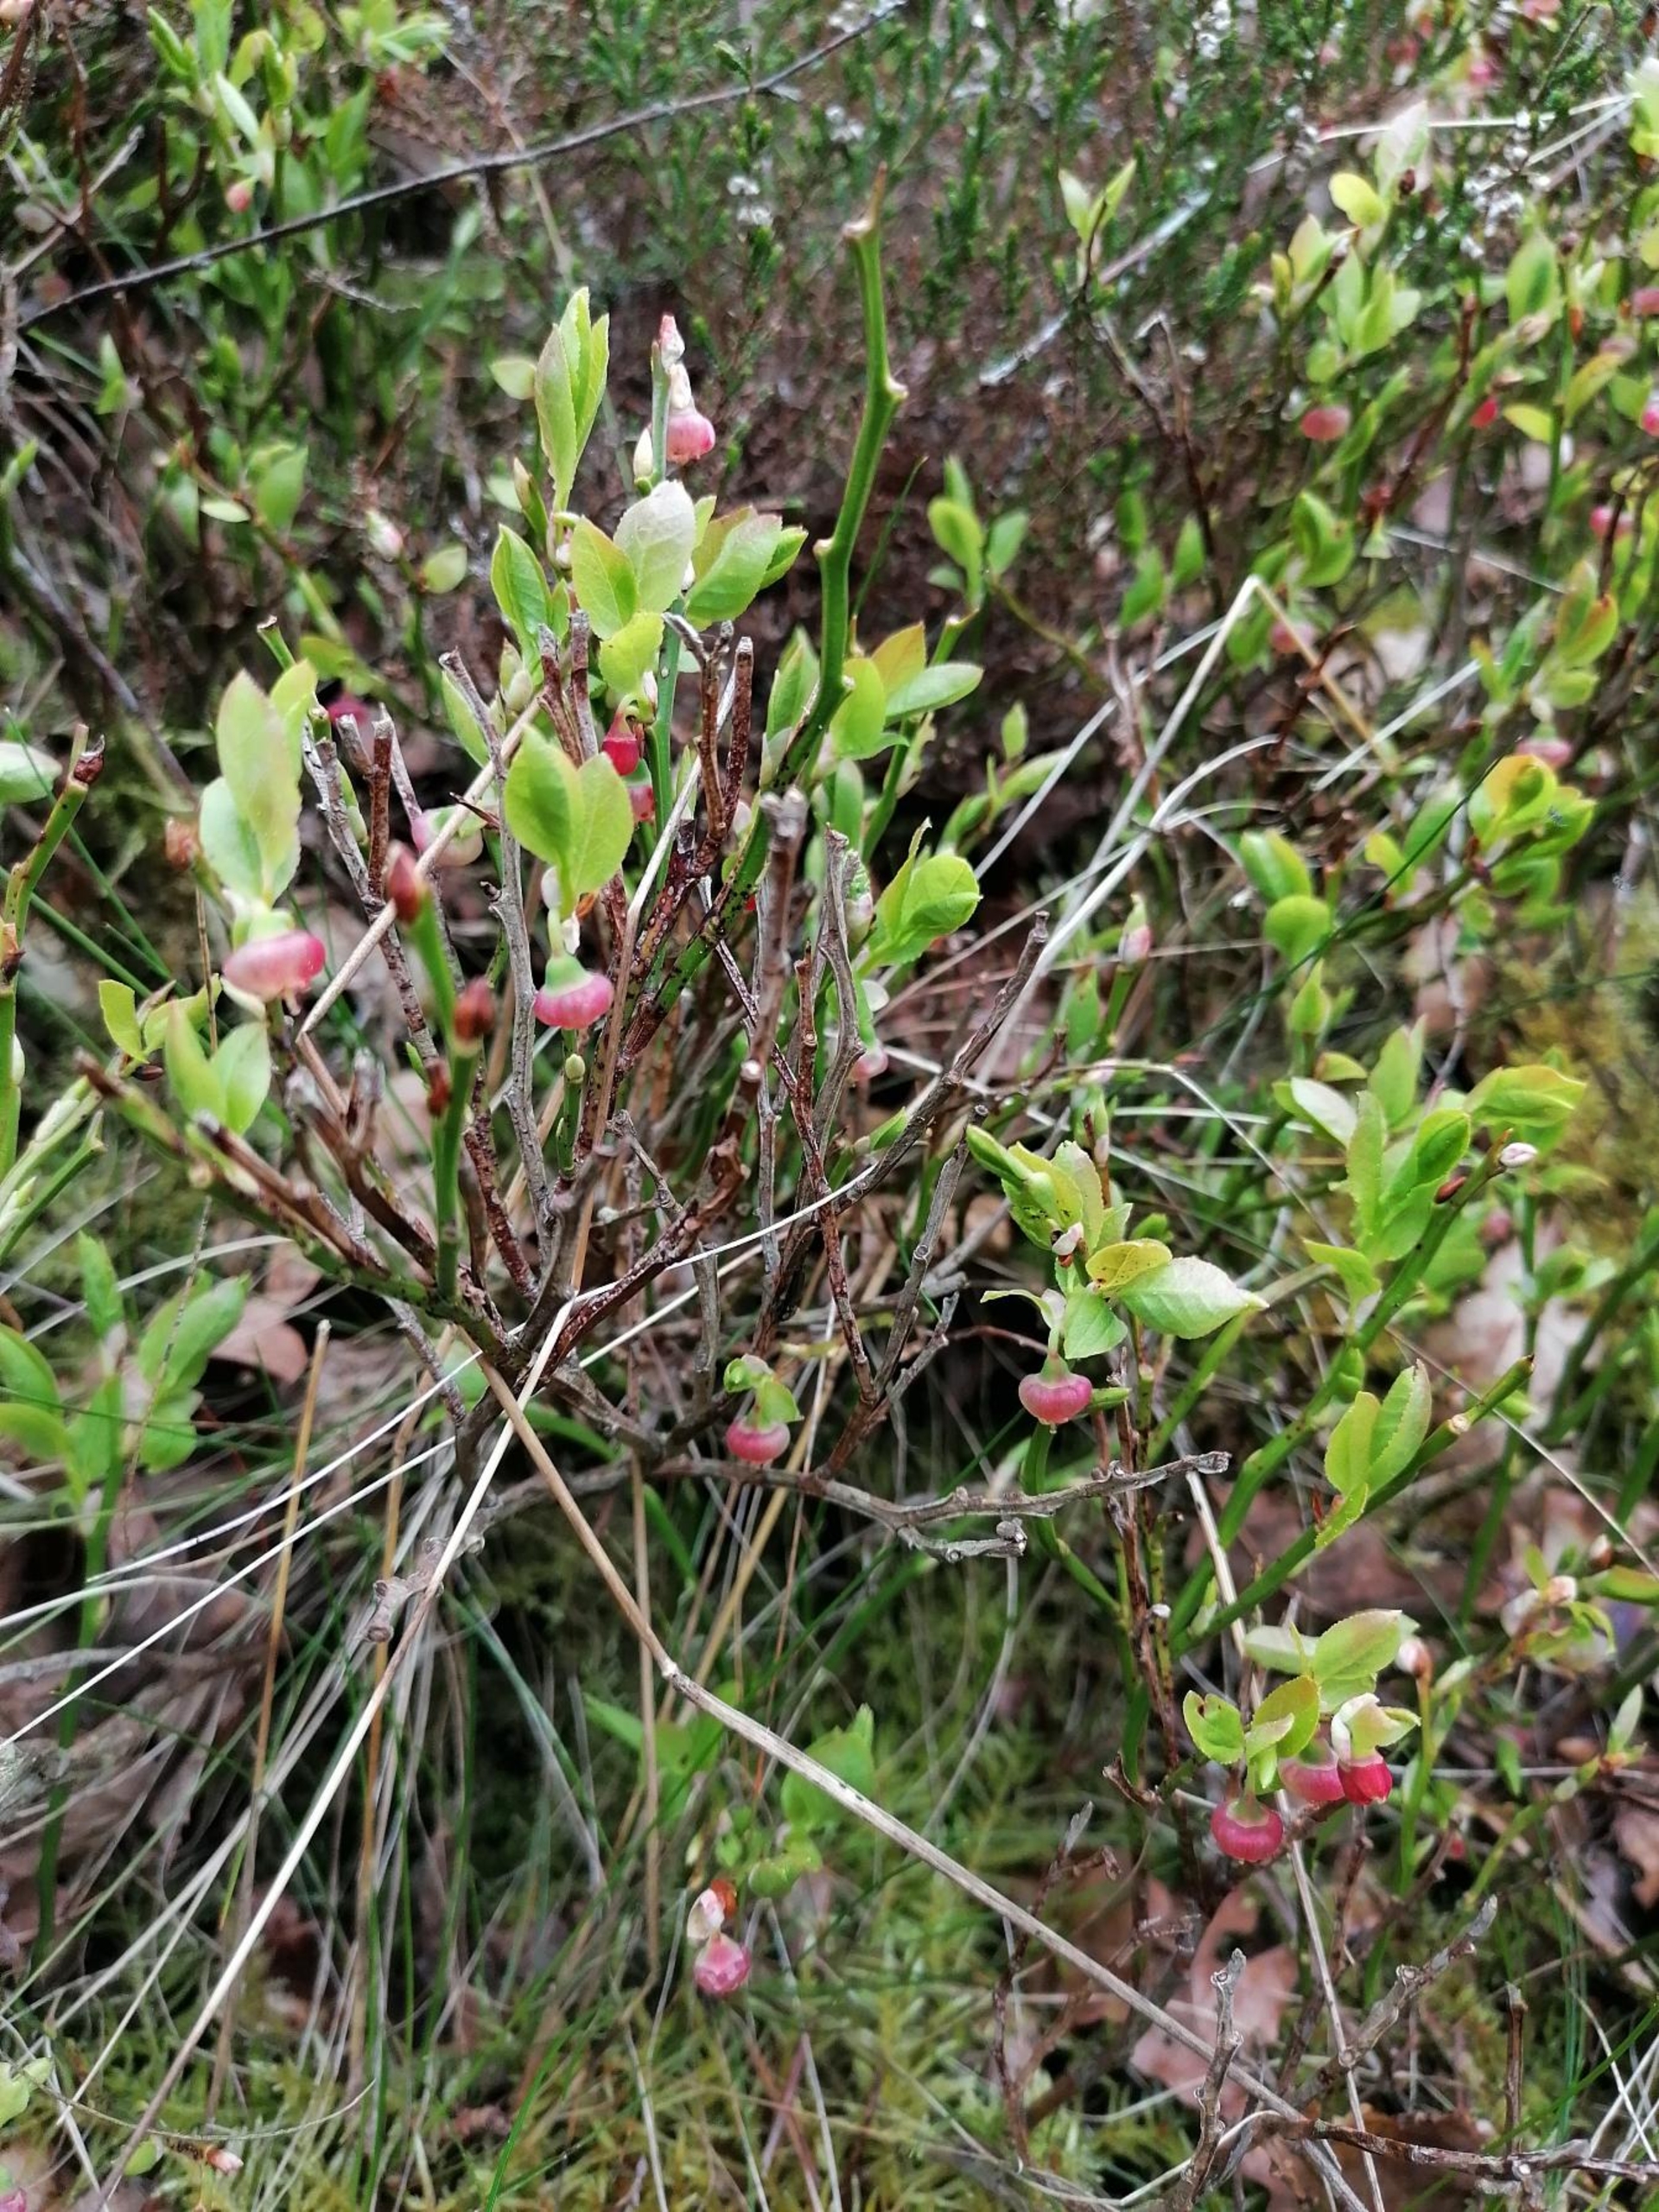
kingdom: Plantae
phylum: Tracheophyta
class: Magnoliopsida
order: Ericales
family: Ericaceae
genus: Vaccinium
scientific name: Vaccinium myrtillus
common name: Blåbær
